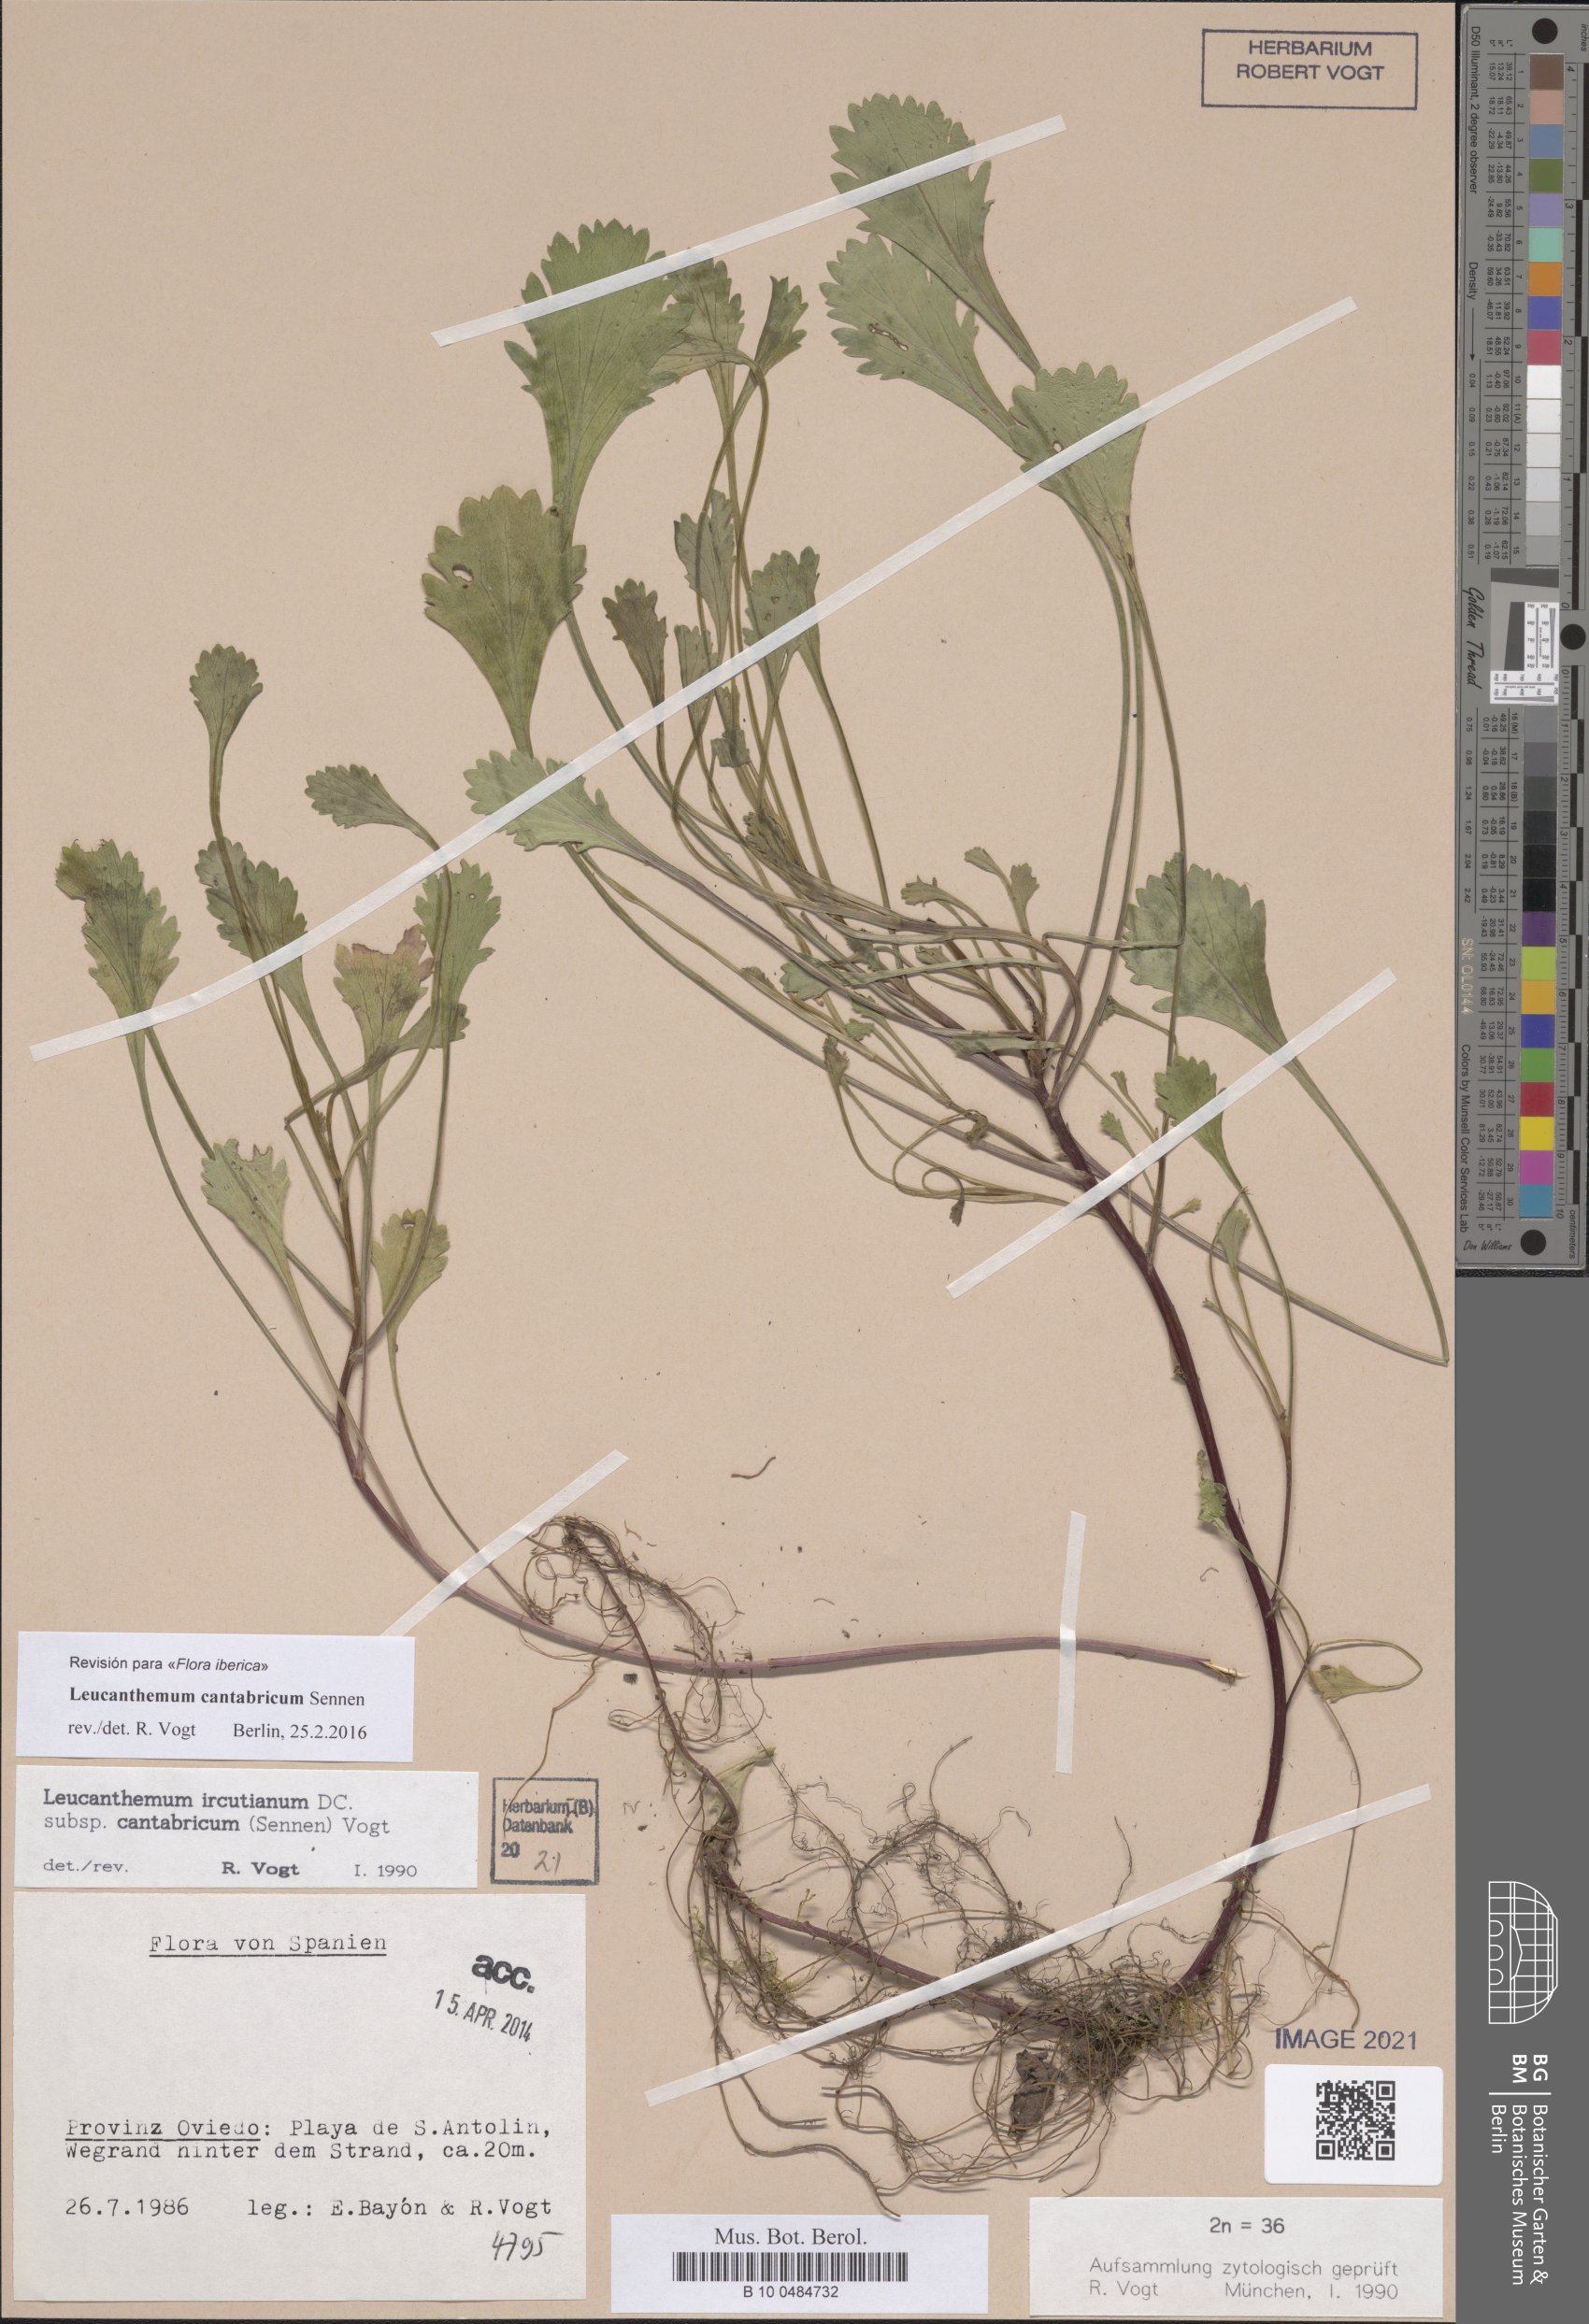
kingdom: Plantae
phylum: Tracheophyta
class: Magnoliopsida
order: Asterales
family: Asteraceae
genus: Leucanthemum
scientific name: Leucanthemum cantabricum
